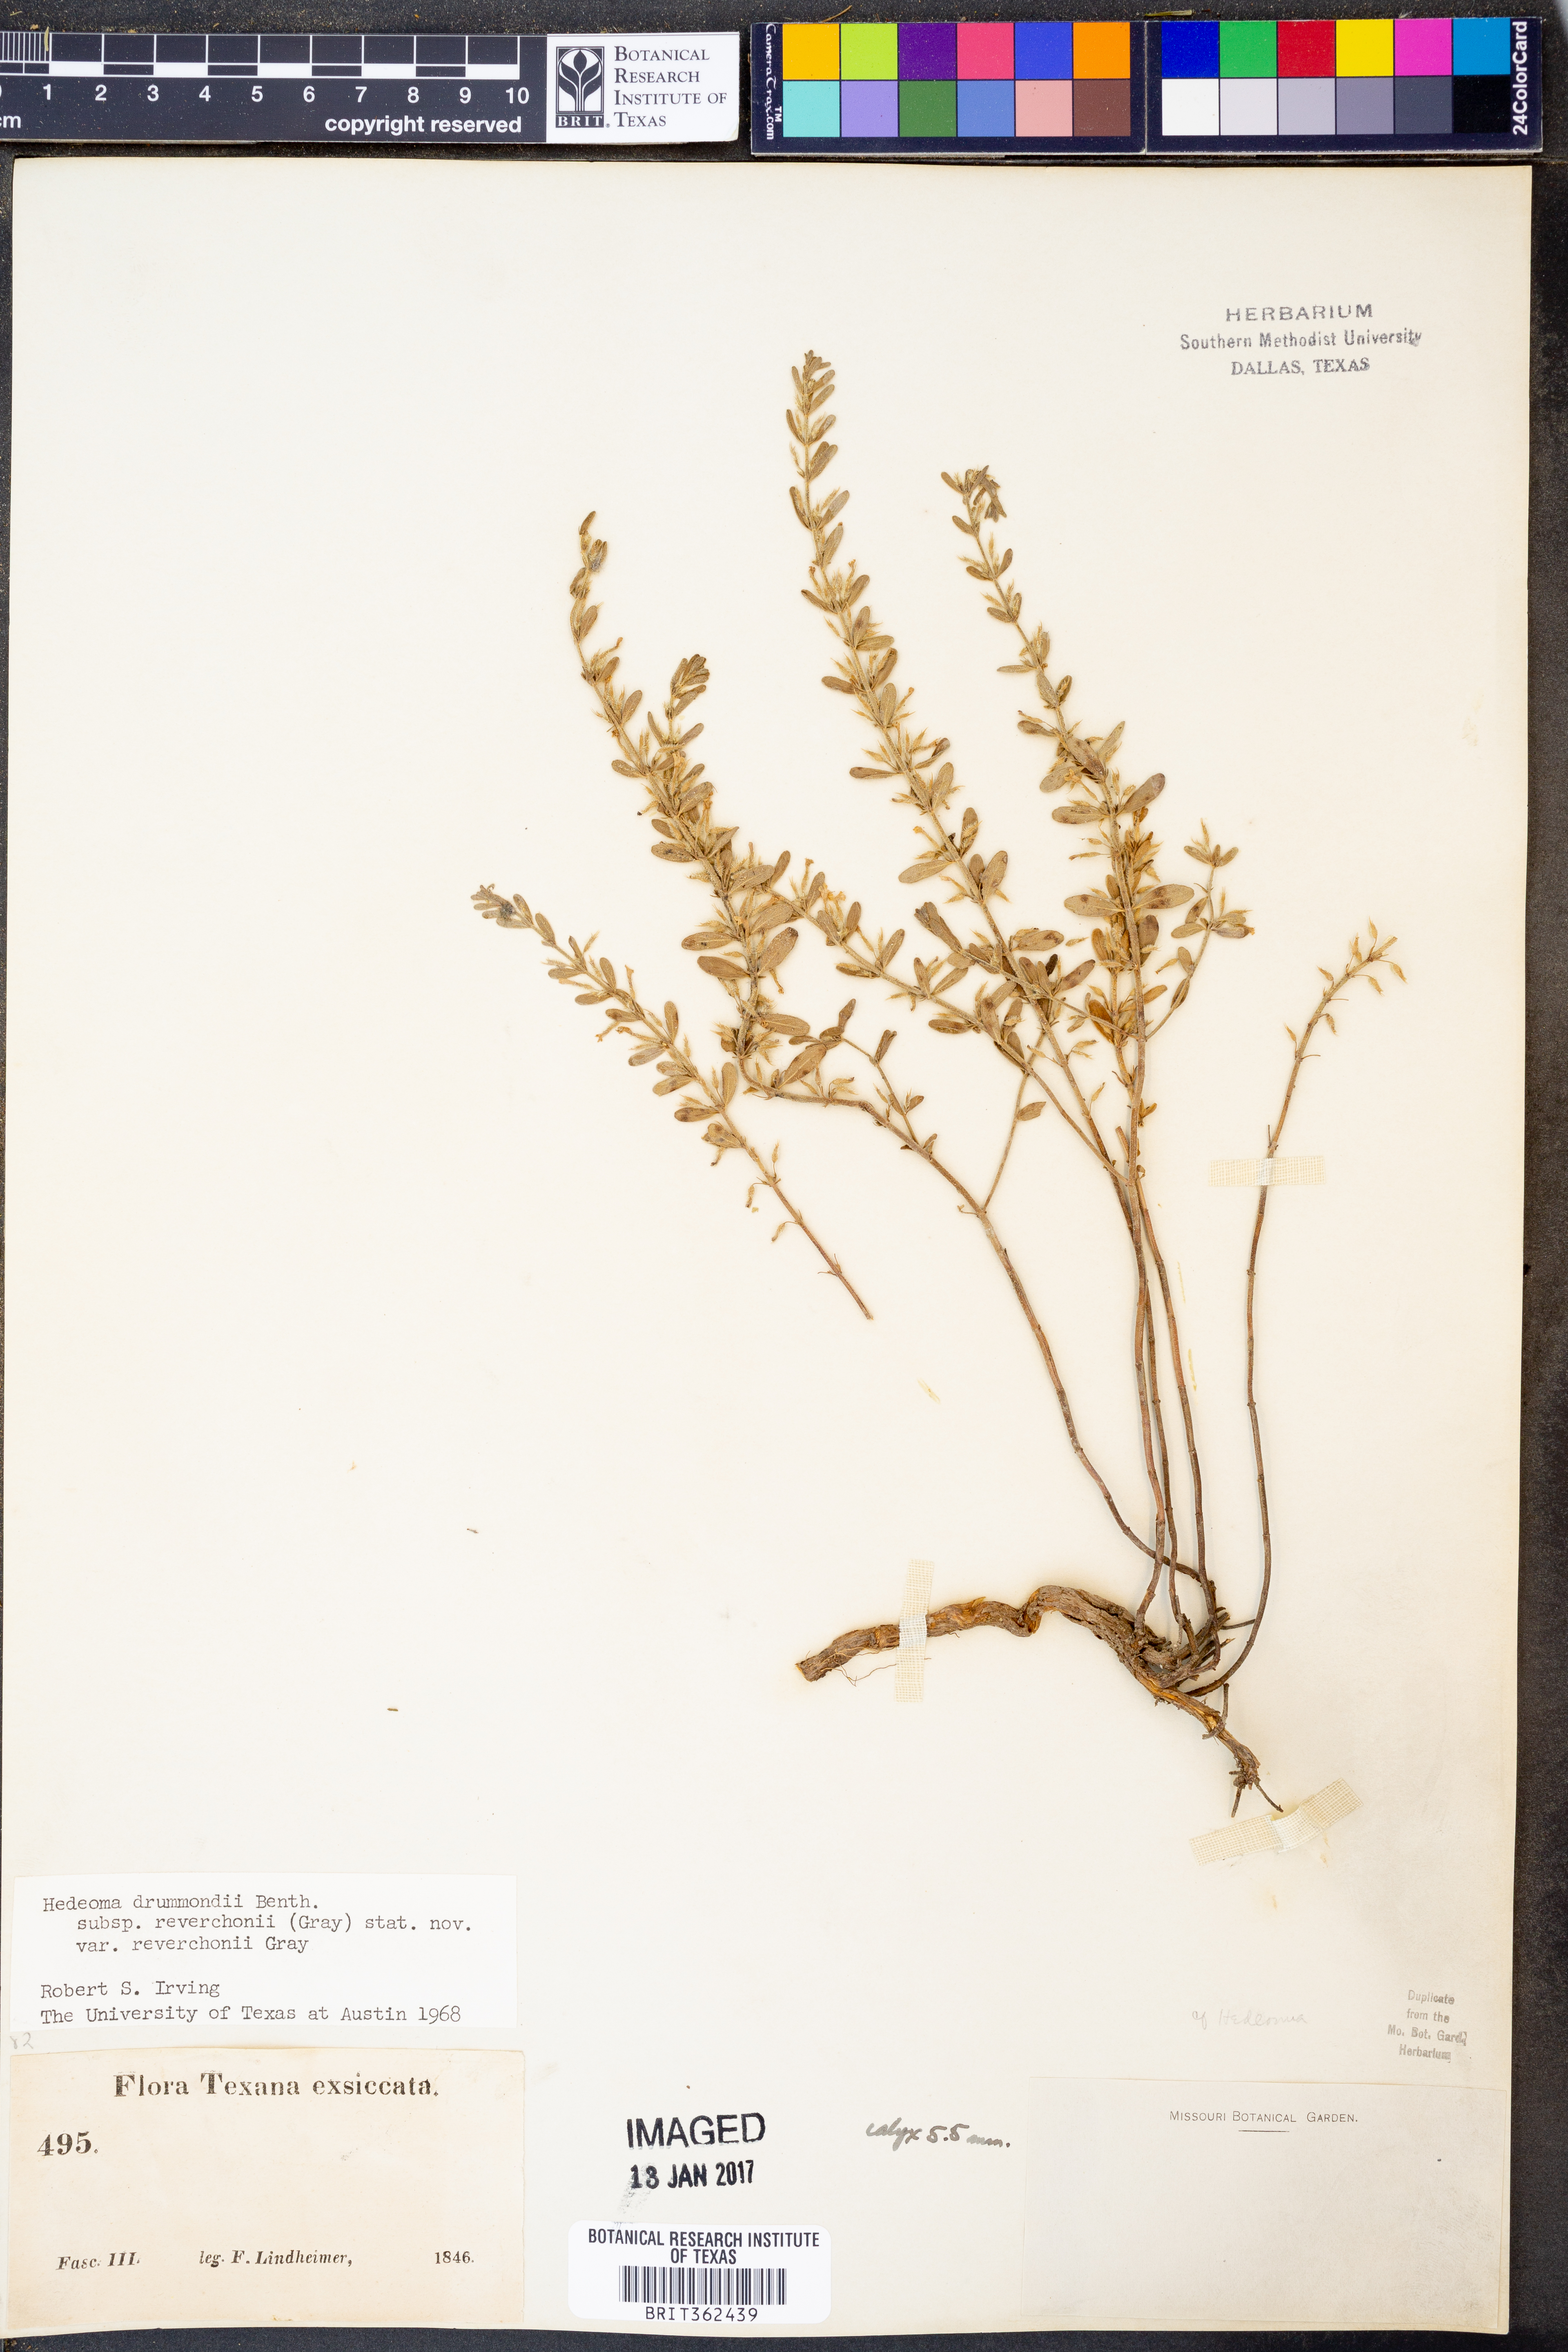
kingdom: Plantae
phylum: Tracheophyta
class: Magnoliopsida
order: Lamiales
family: Lamiaceae
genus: Hedeoma
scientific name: Hedeoma reverchonii
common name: Reverchon's false penny-royal
